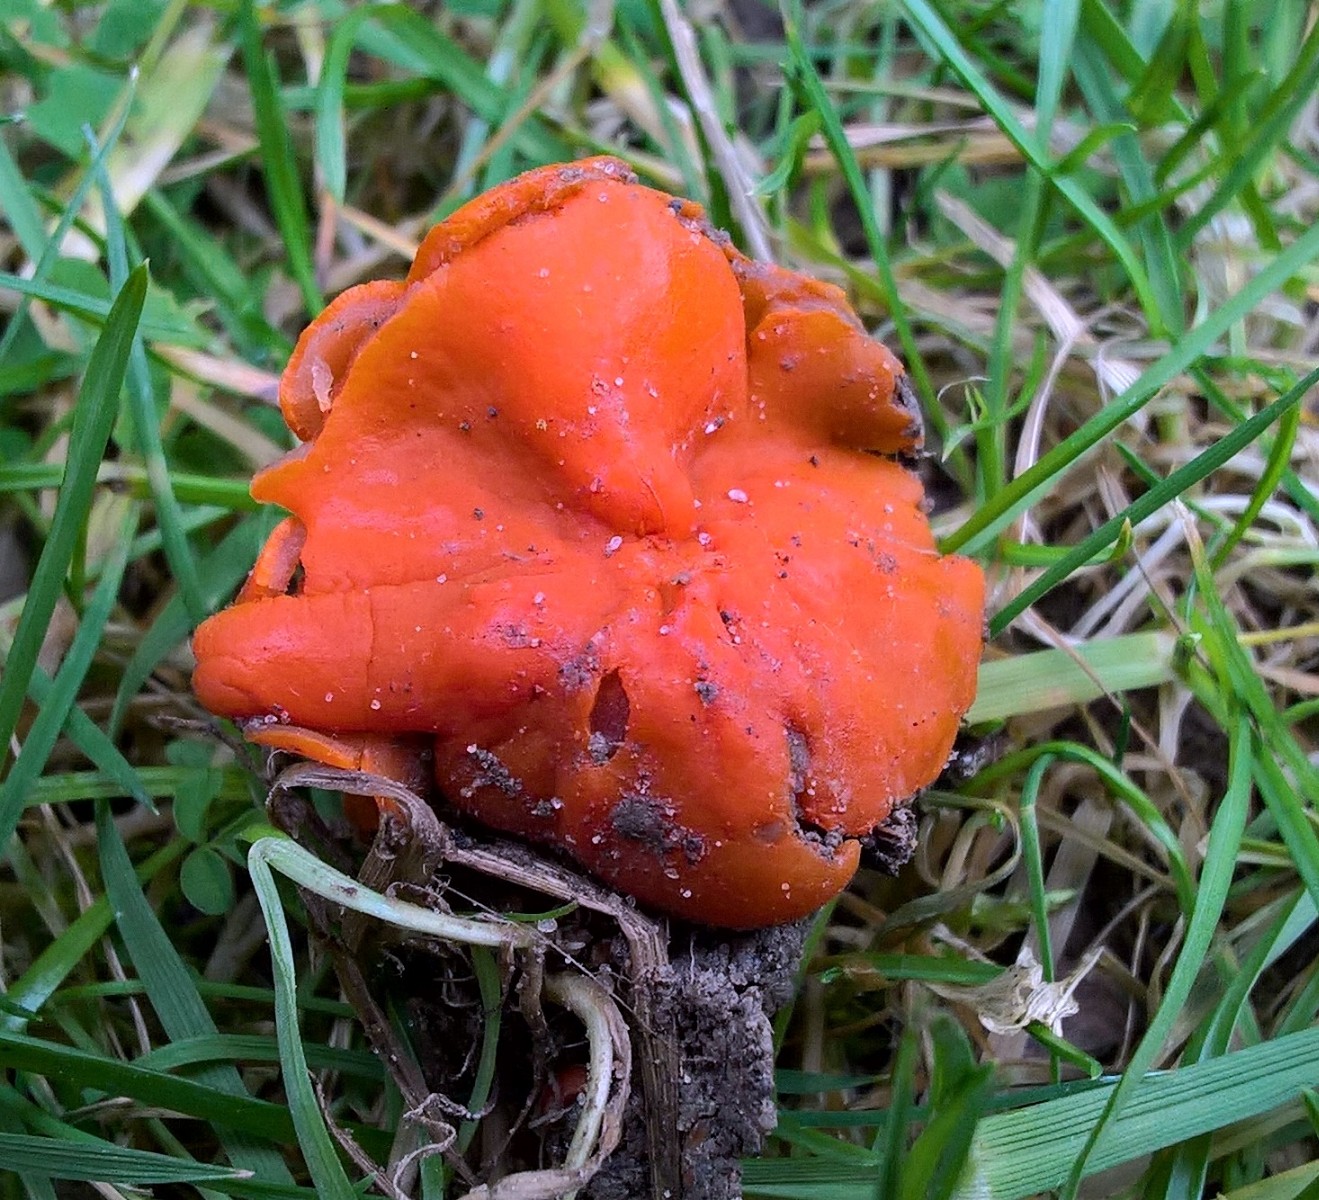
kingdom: Fungi
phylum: Ascomycota
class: Pezizomycetes
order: Pezizales
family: Pyronemataceae
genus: Melastiza
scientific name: Melastiza cornubiensis
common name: mørkrandet rødbæger
